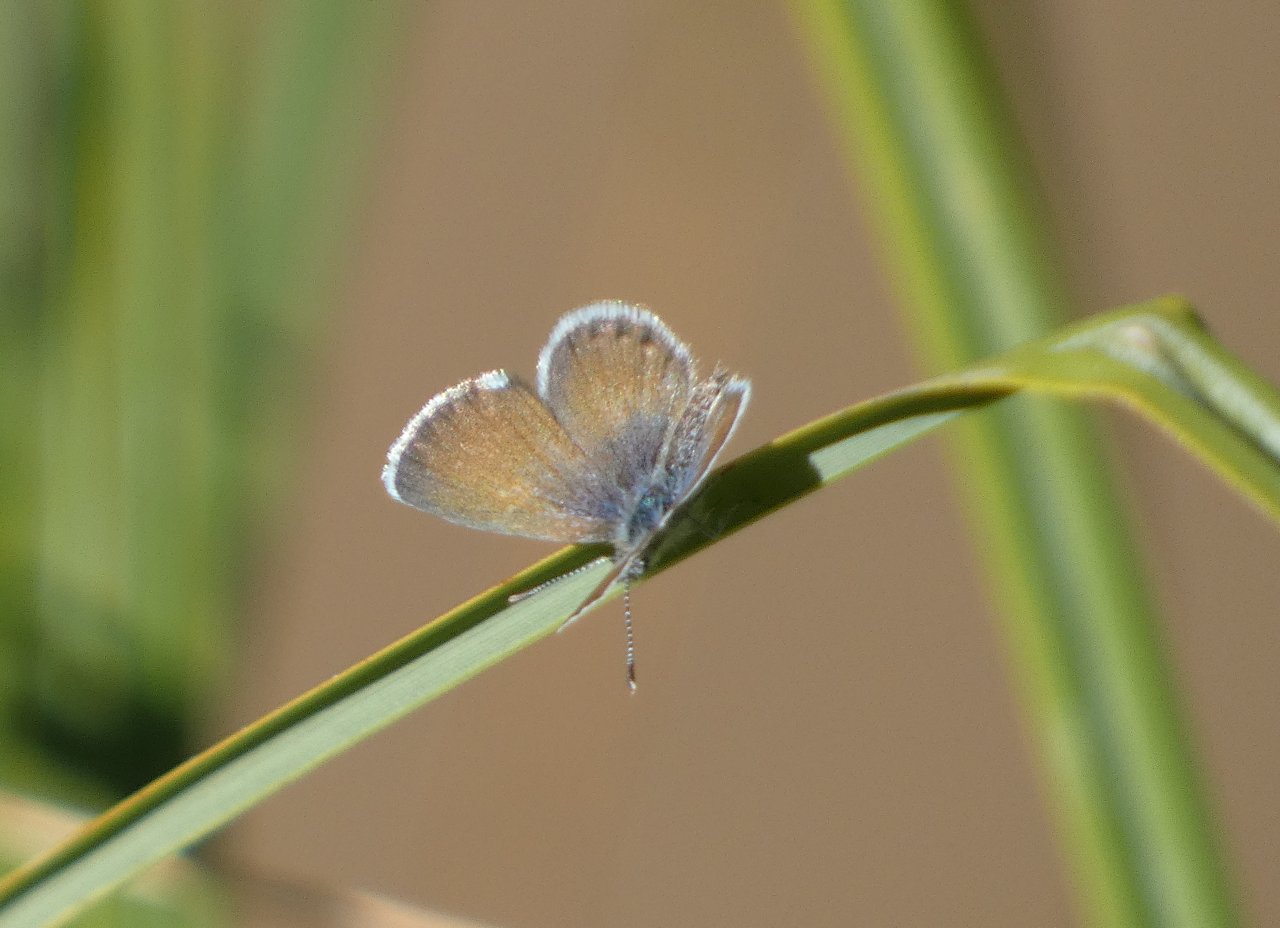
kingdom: Animalia
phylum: Arthropoda
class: Insecta
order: Lepidoptera
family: Lycaenidae
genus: Brephidium
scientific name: Brephidium exilis
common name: Western Pygmy-Blue
